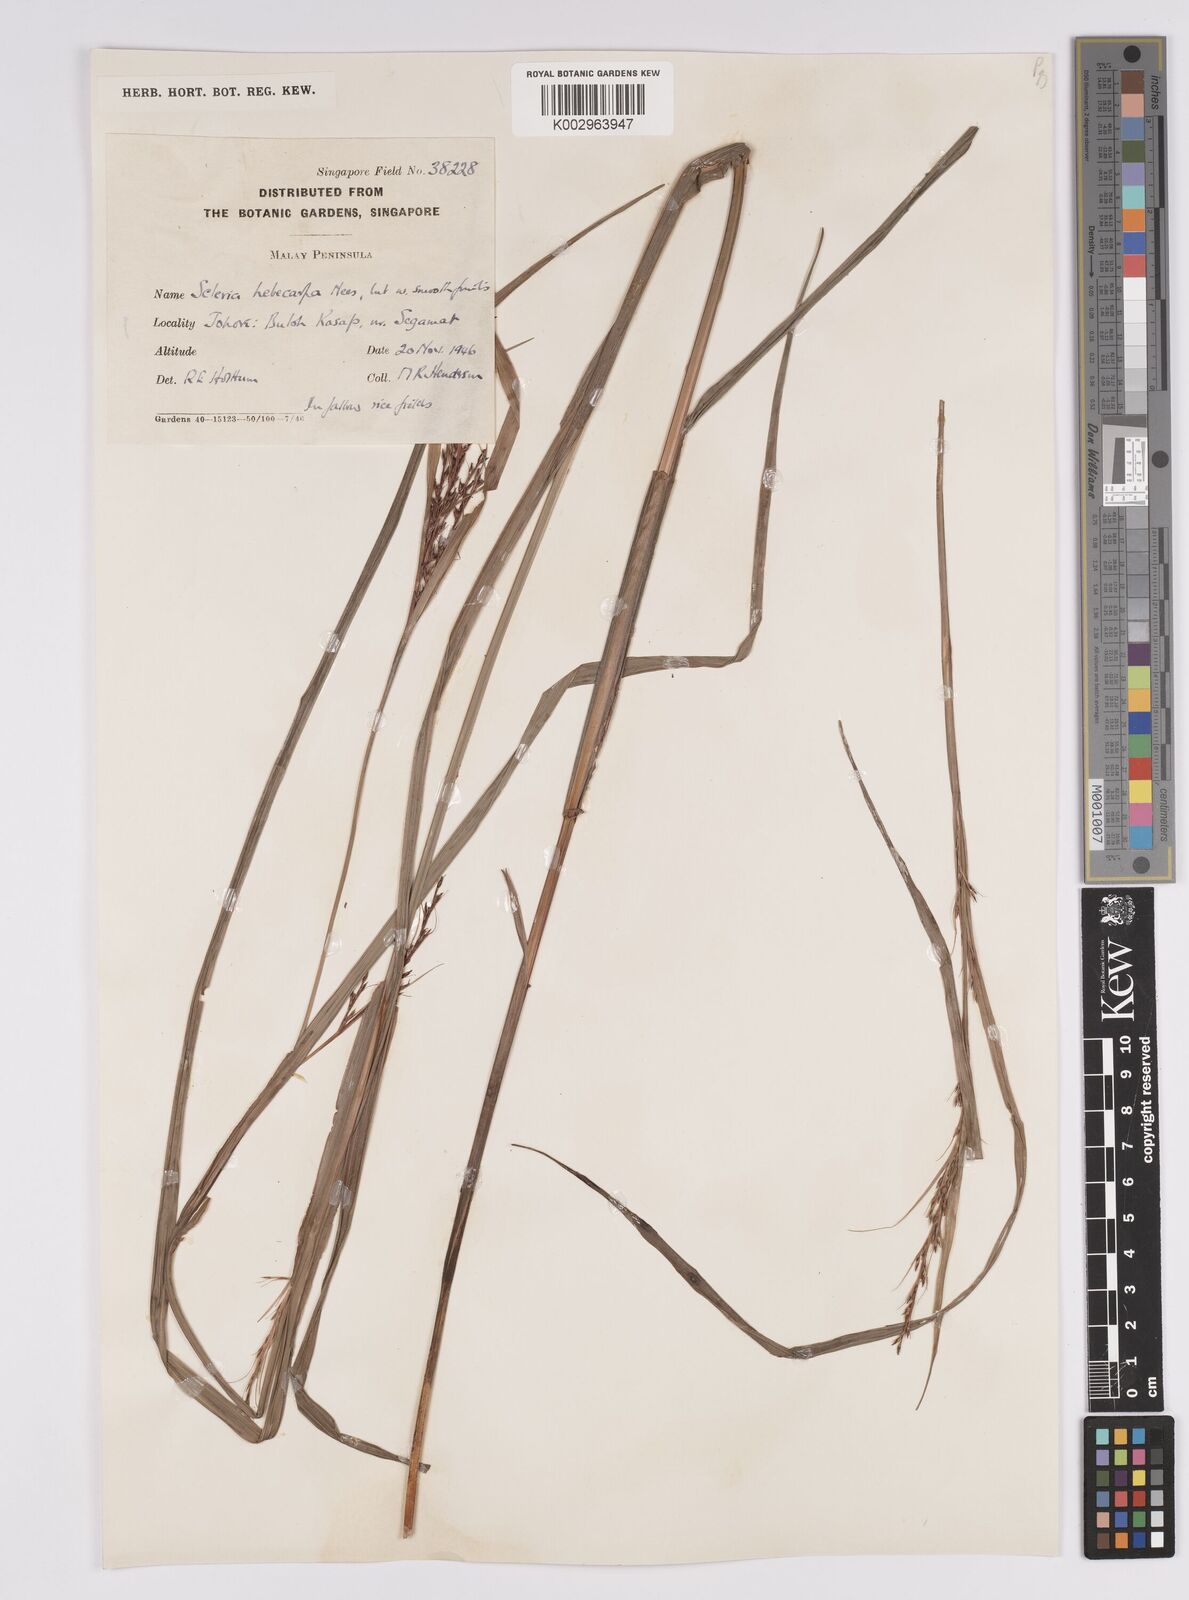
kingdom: Plantae
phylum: Tracheophyta
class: Liliopsida
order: Poales
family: Cyperaceae
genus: Scleria
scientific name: Scleria levis
